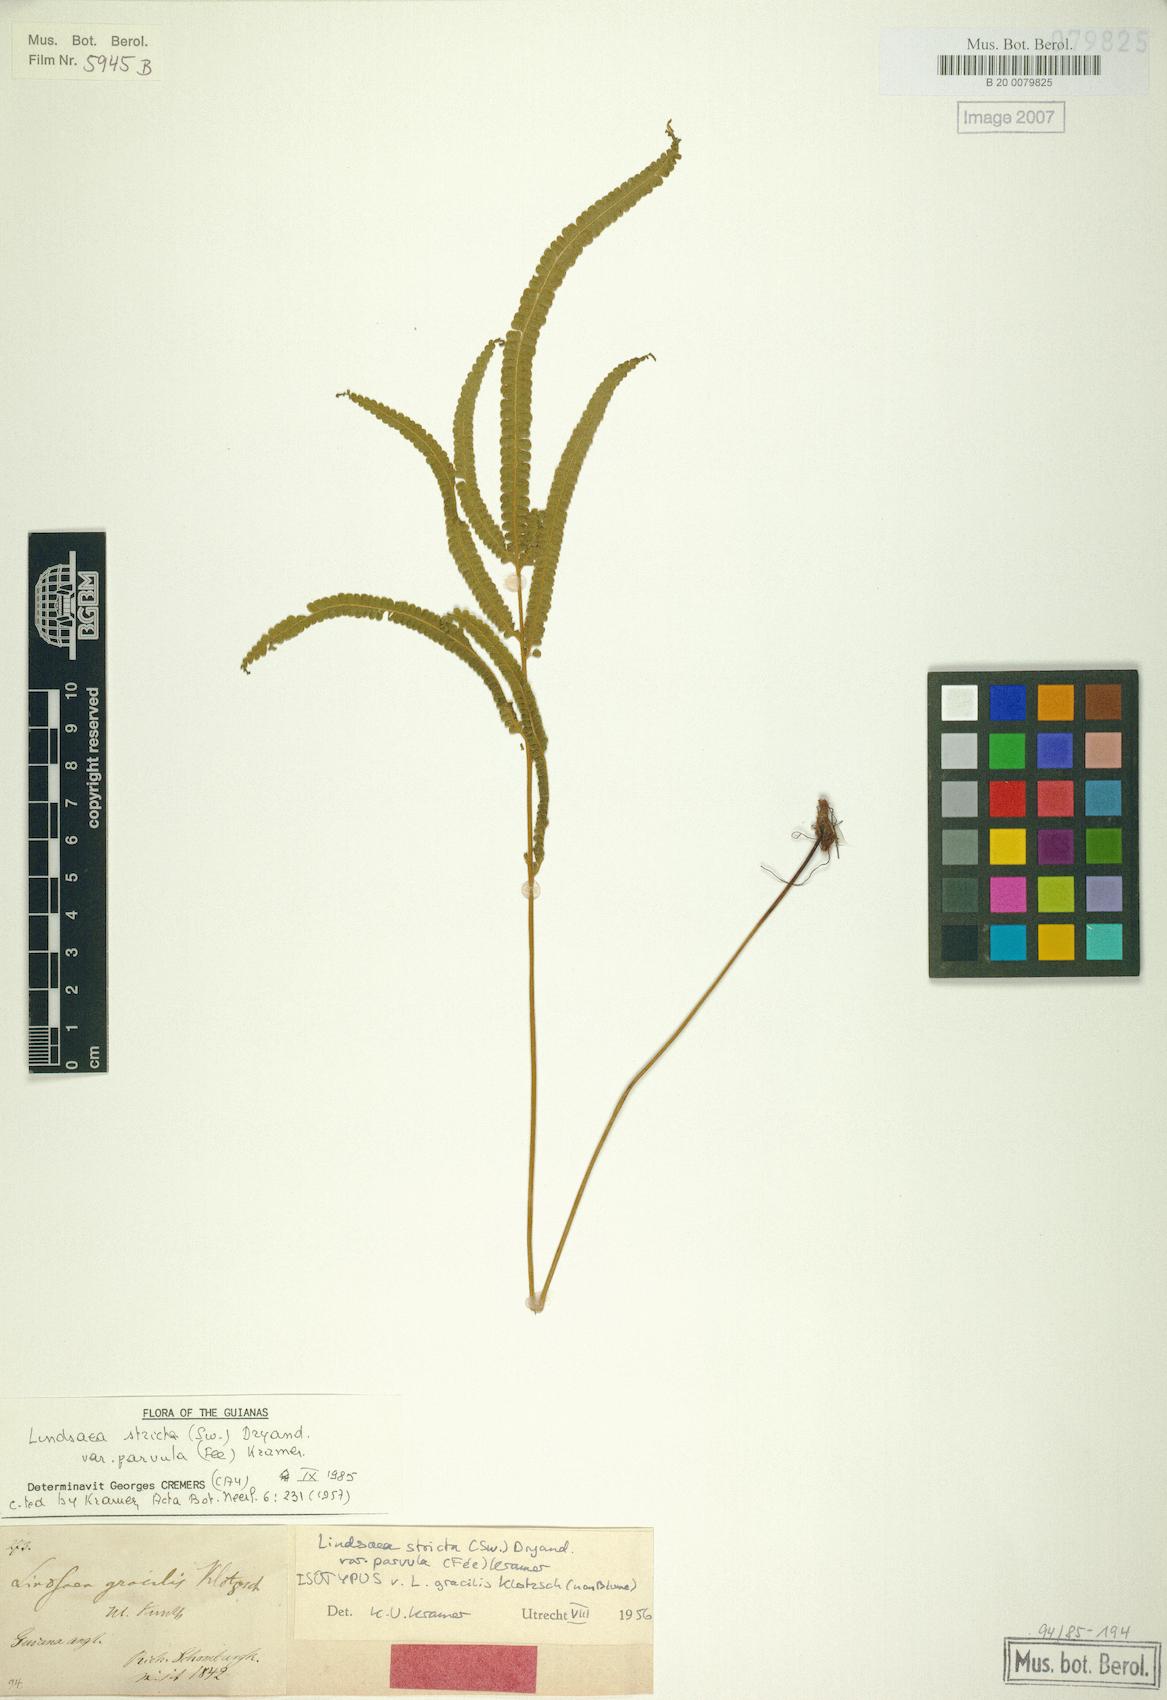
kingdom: Plantae
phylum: Tracheophyta
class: Polypodiopsida
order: Polypodiales
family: Lindsaeaceae
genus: Lindsaea
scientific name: Lindsaea stricta
